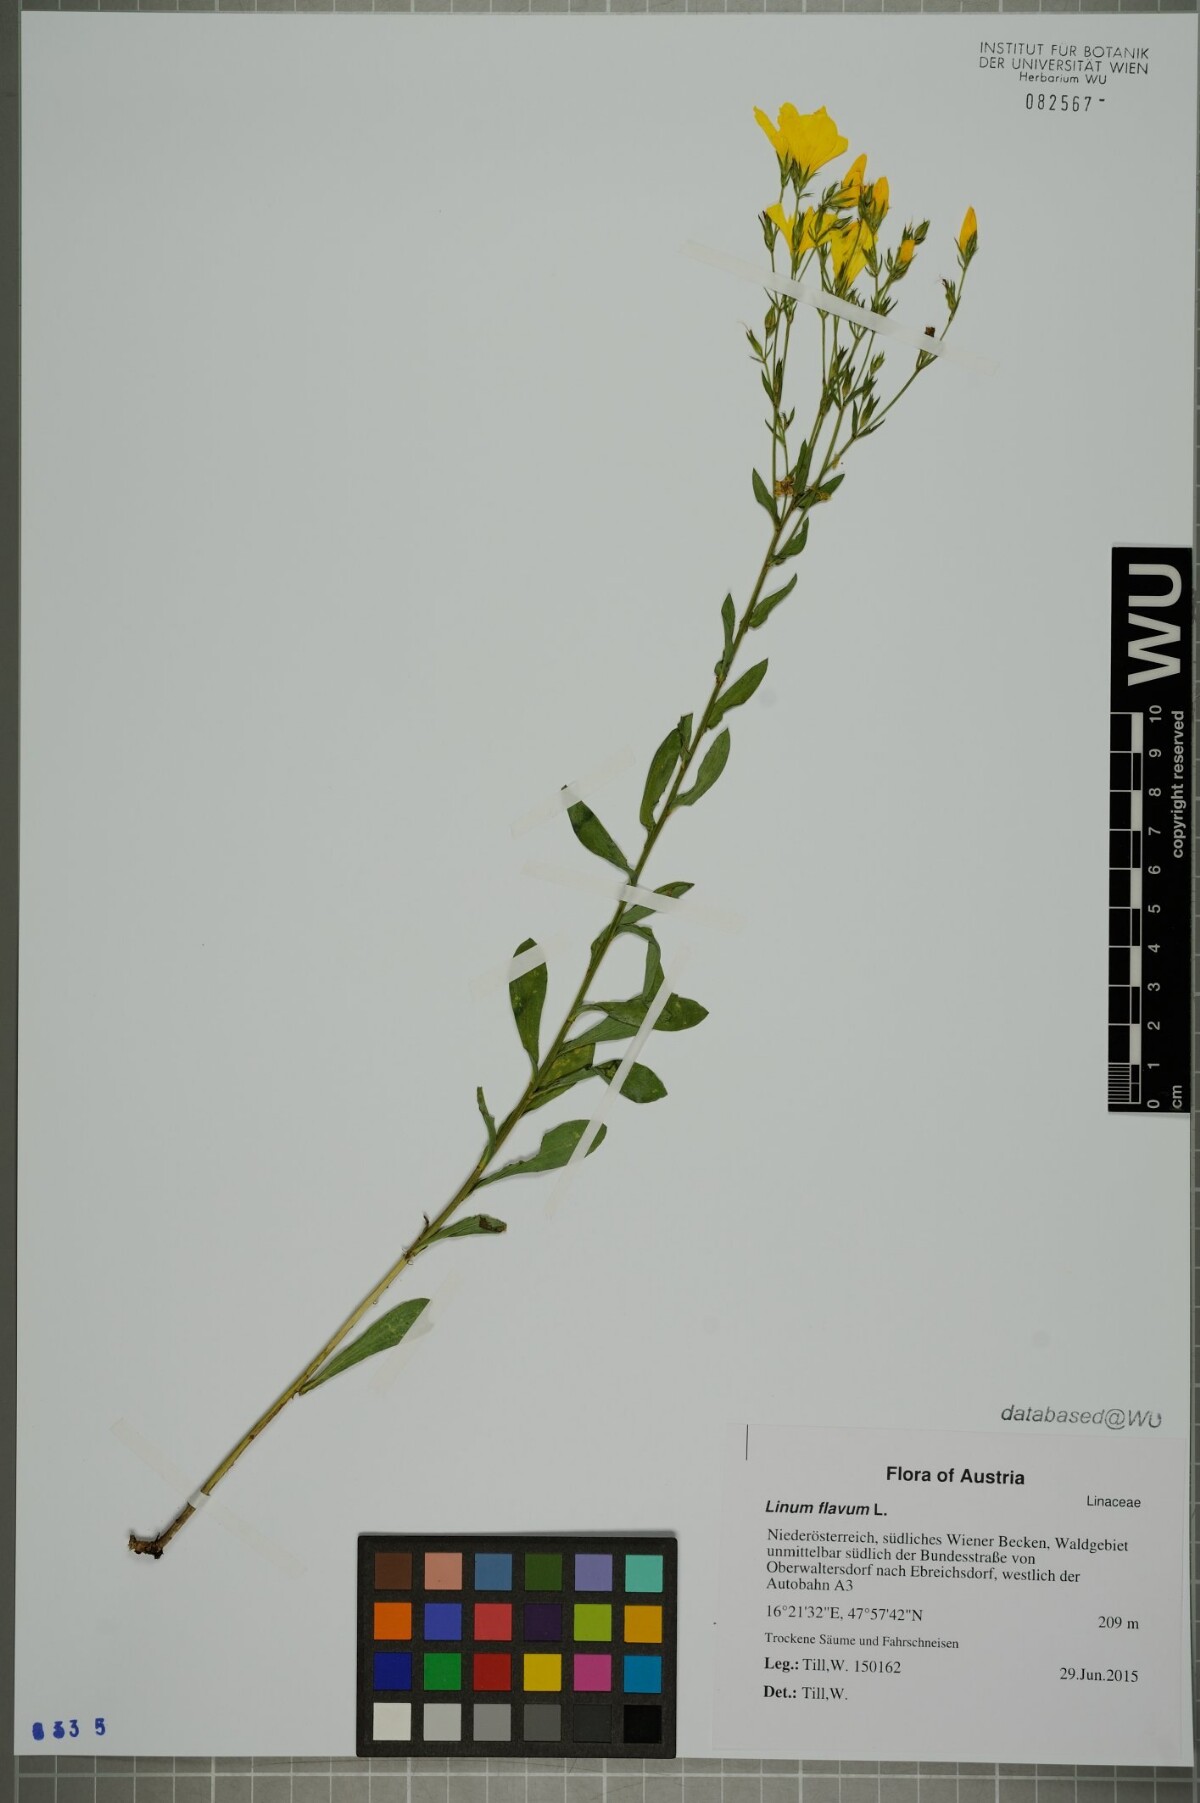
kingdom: Plantae
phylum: Tracheophyta
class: Magnoliopsida
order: Malpighiales
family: Linaceae
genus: Linum
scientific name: Linum flavum
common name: Yellow flax
